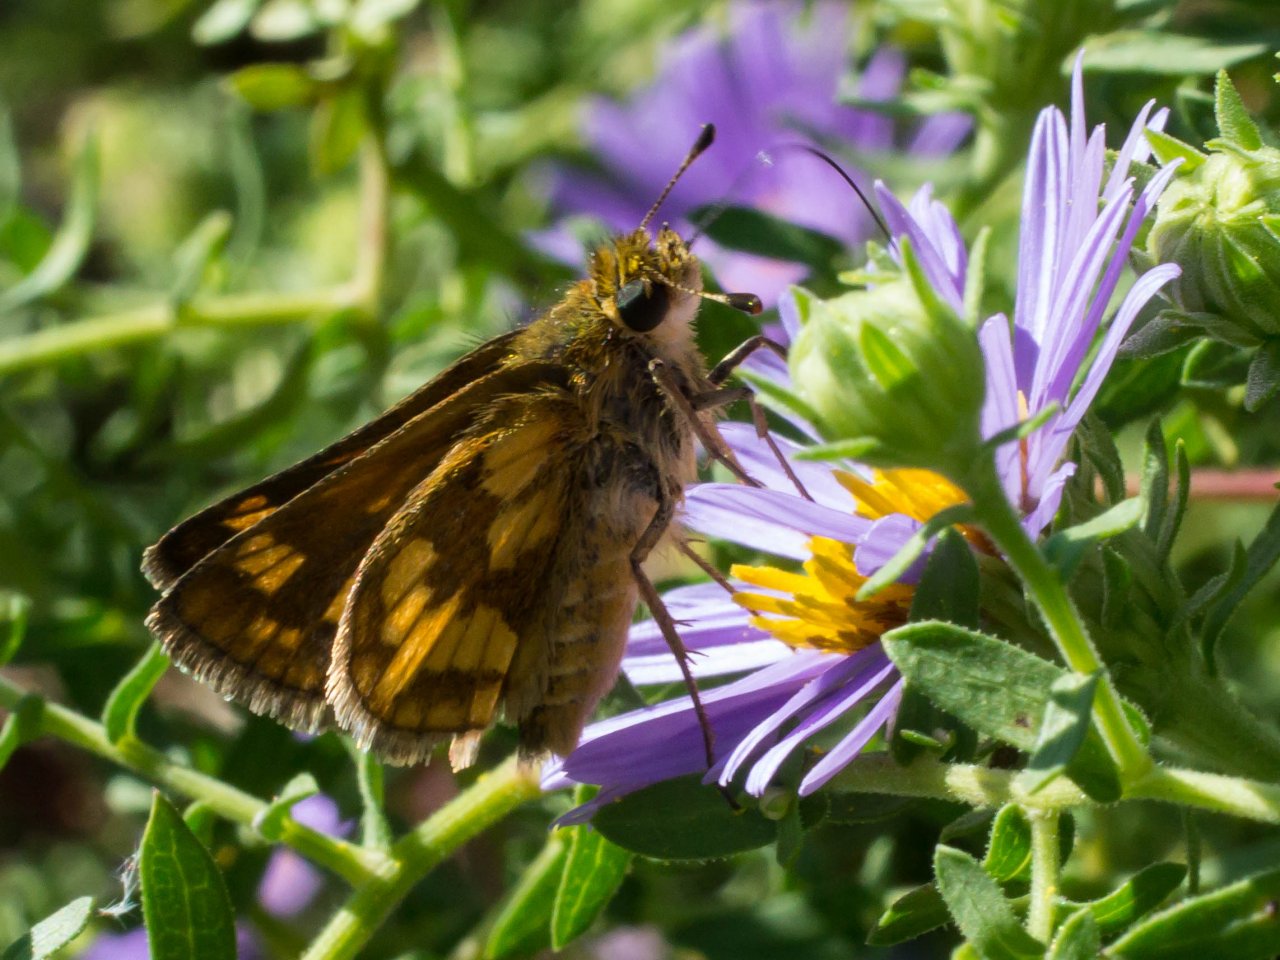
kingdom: Animalia
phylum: Arthropoda
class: Insecta
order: Lepidoptera
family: Hesperiidae
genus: Polites
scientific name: Polites coras
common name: Peck's Skipper
